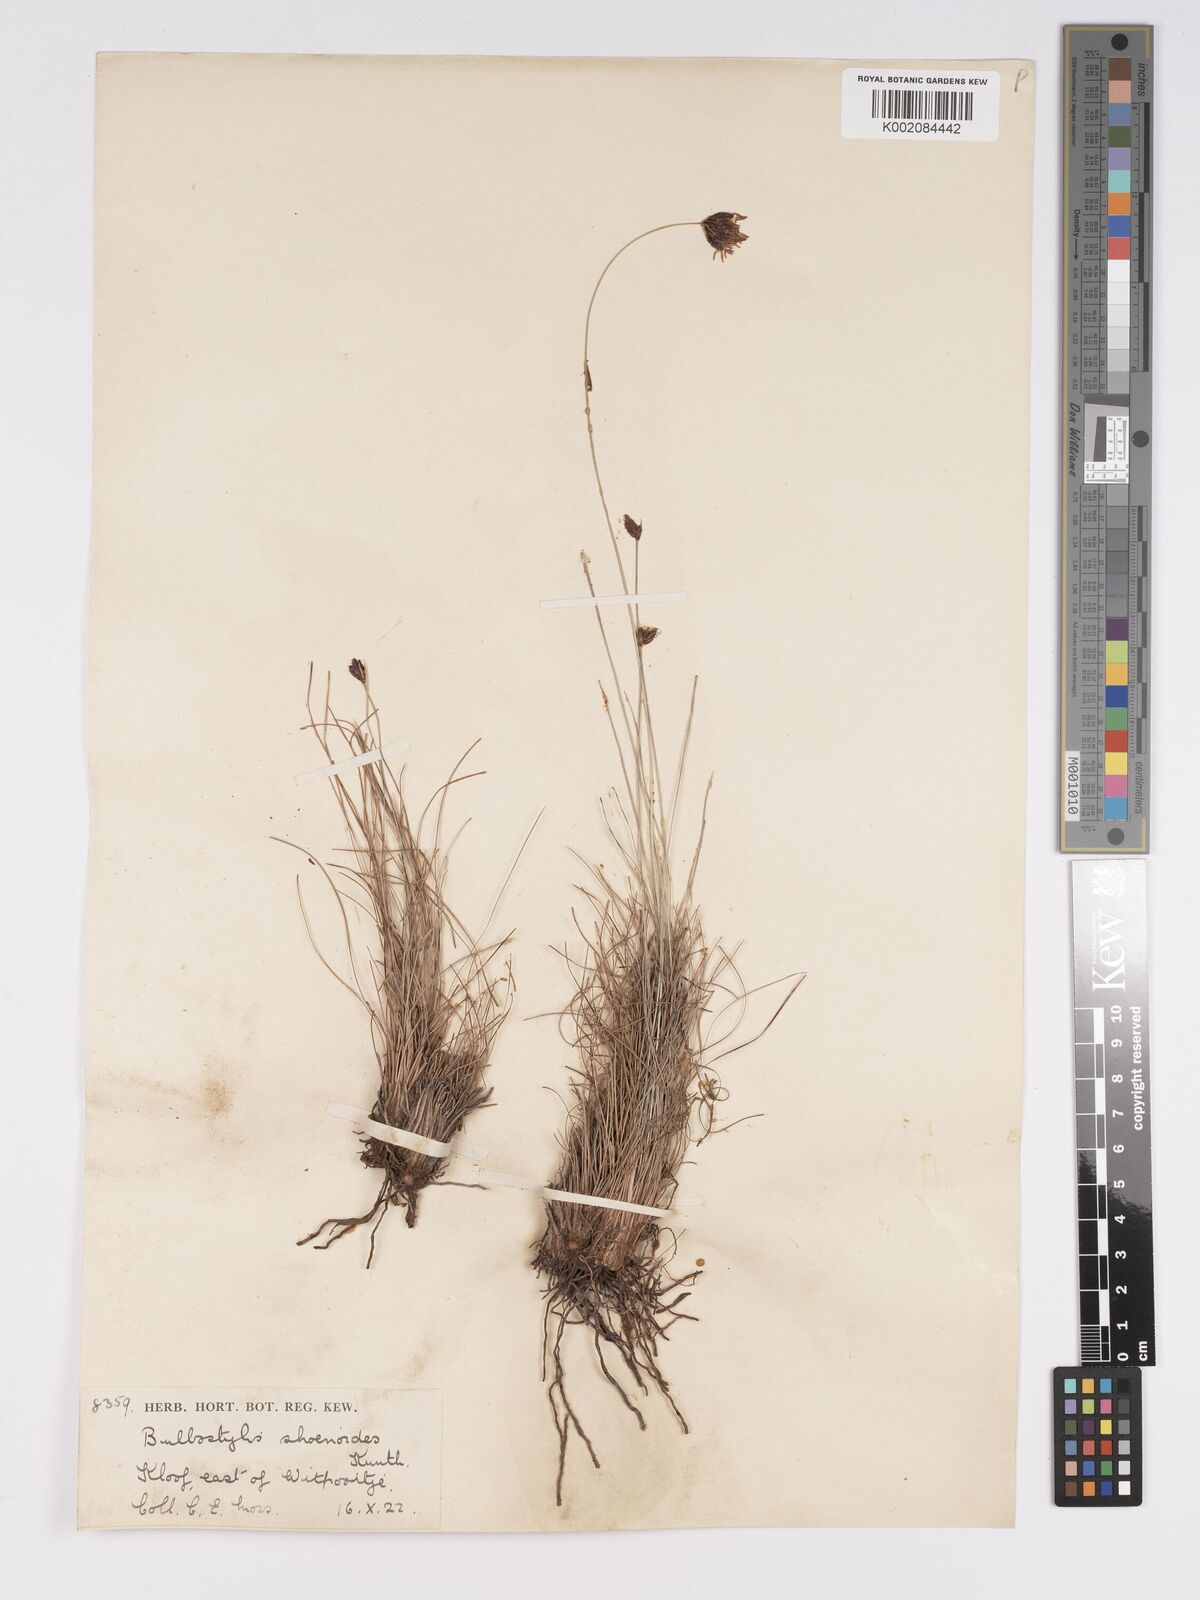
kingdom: Plantae
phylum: Tracheophyta
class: Liliopsida
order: Poales
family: Cyperaceae
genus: Bulbostylis
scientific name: Bulbostylis schoenoides
